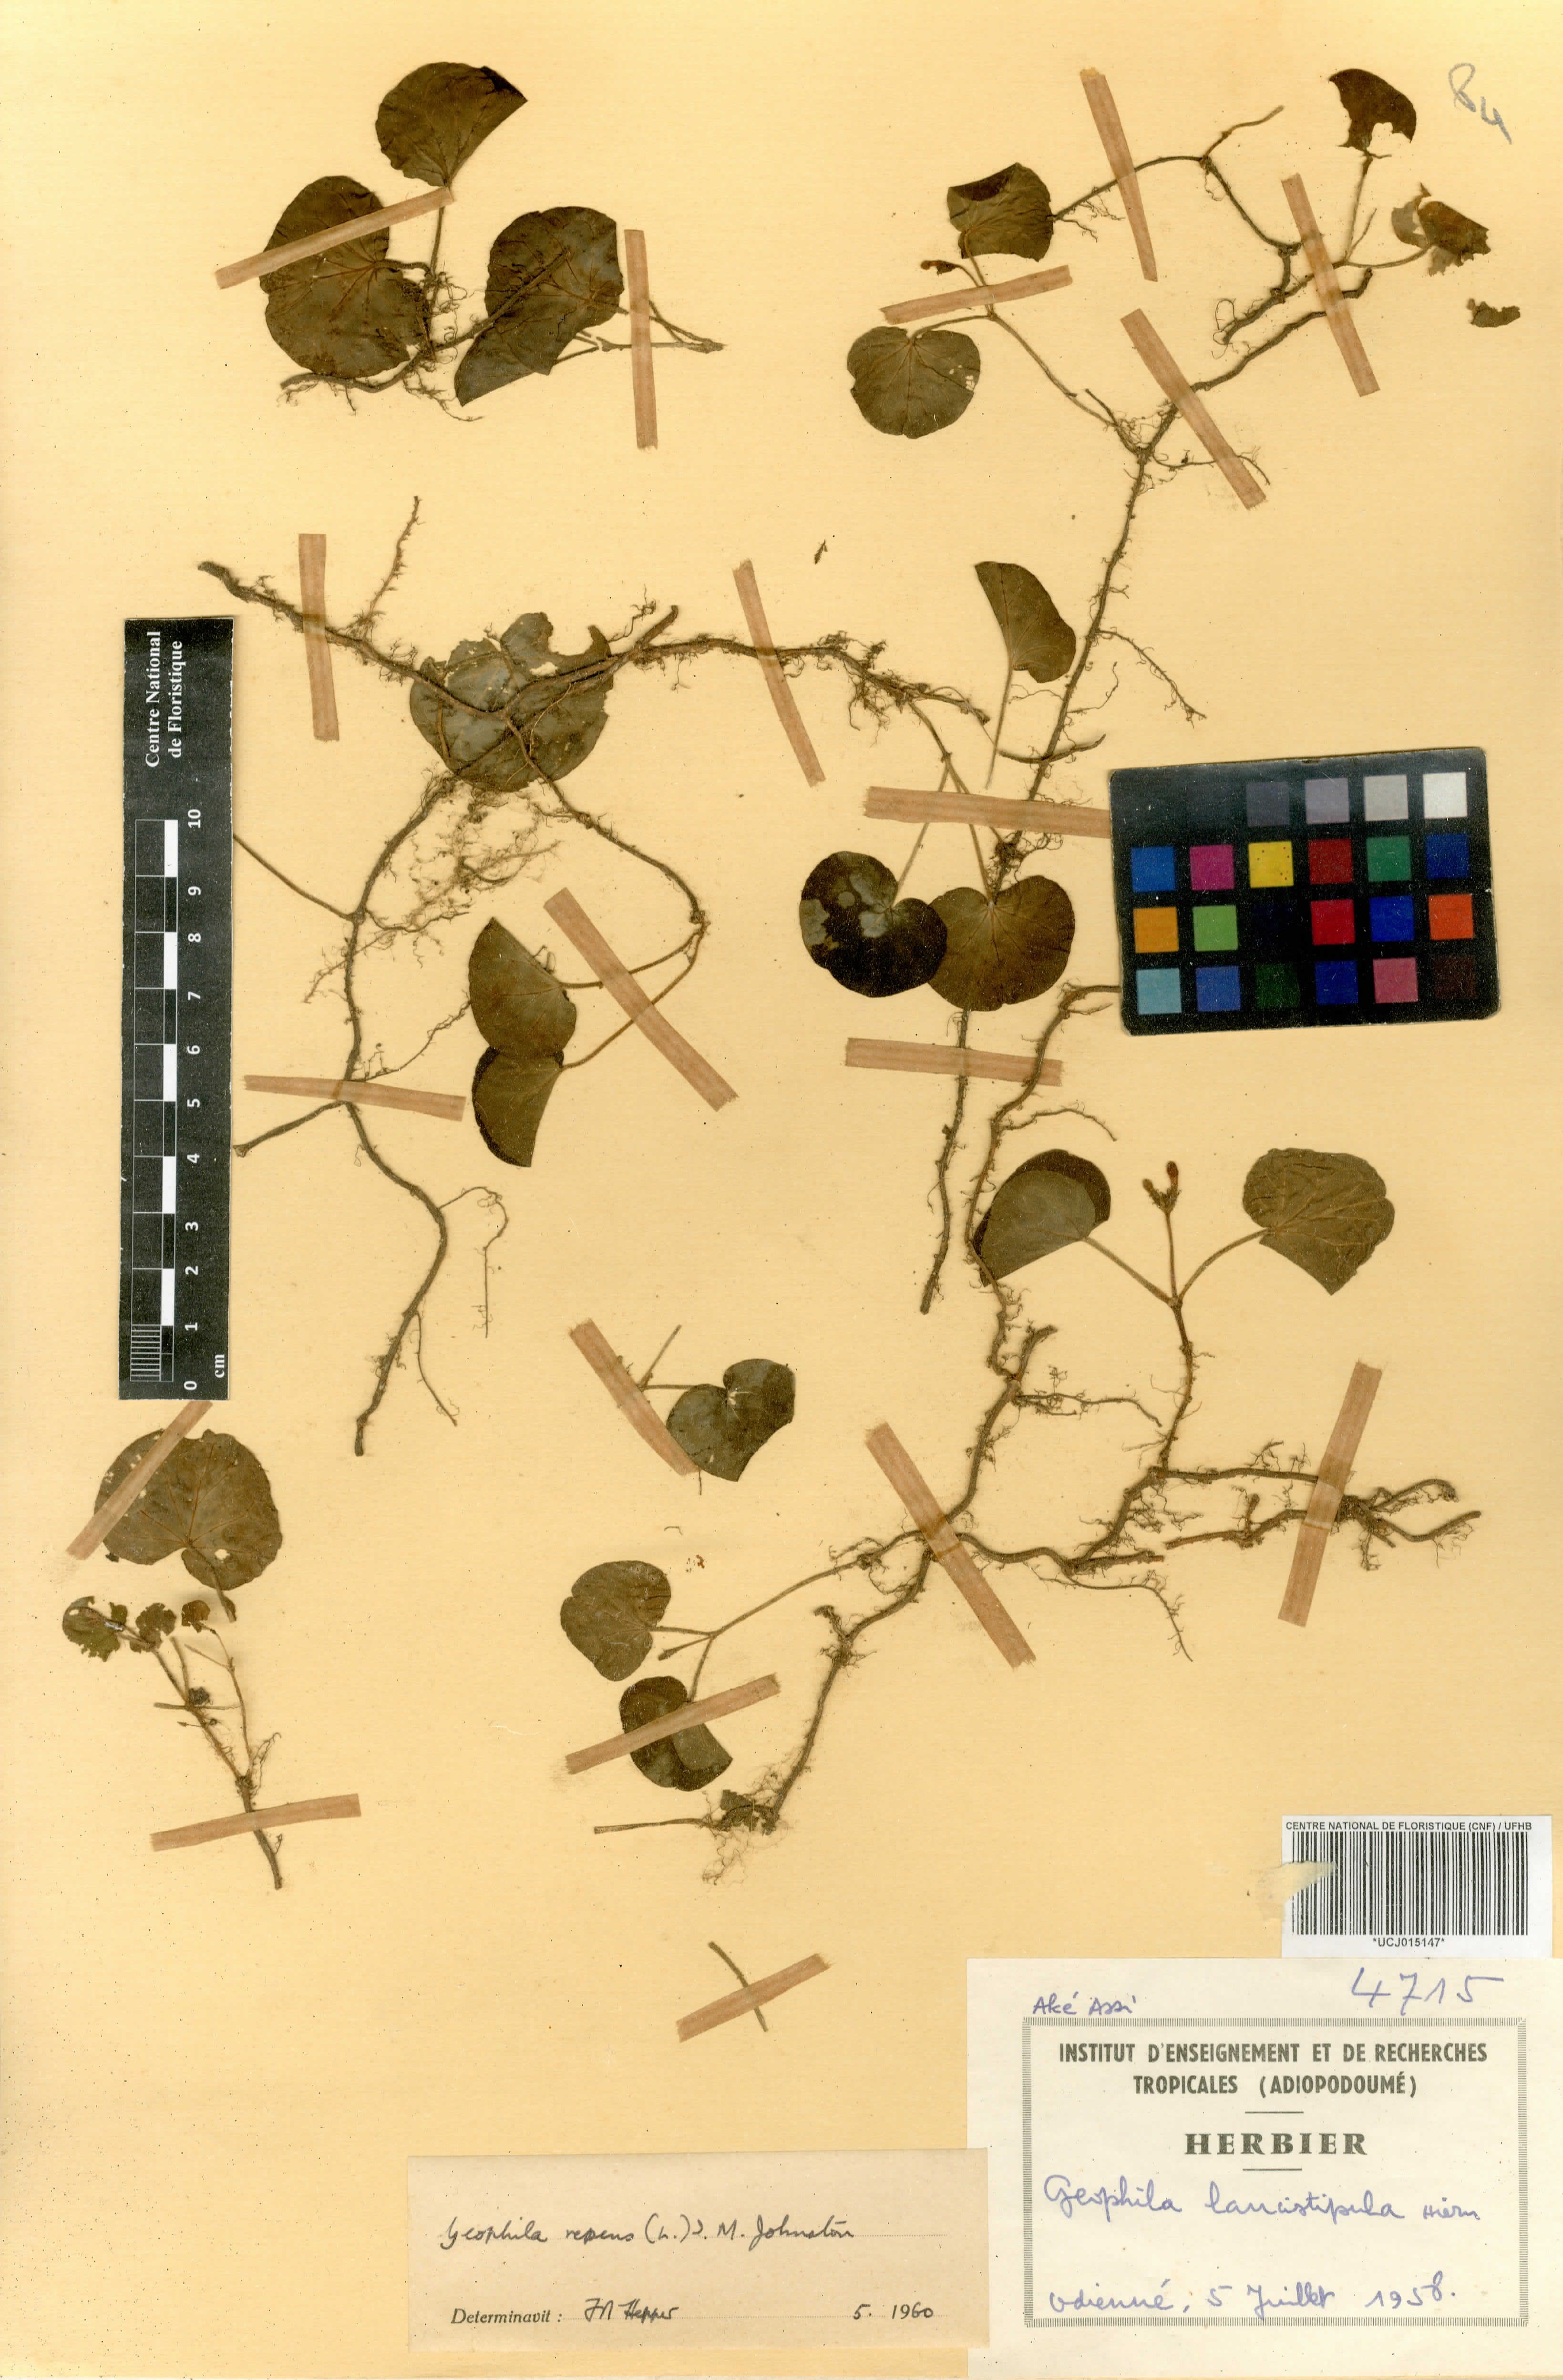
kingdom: Plantae
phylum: Tracheophyta
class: Magnoliopsida
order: Gentianales
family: Rubiaceae
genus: Geophila
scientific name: Geophila lancistipula
